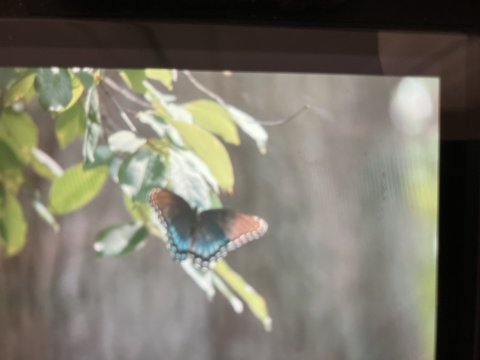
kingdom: Animalia
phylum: Arthropoda
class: Insecta
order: Lepidoptera
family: Nymphalidae
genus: Limenitis
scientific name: Limenitis arthemis
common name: Red-spotted Admiral
